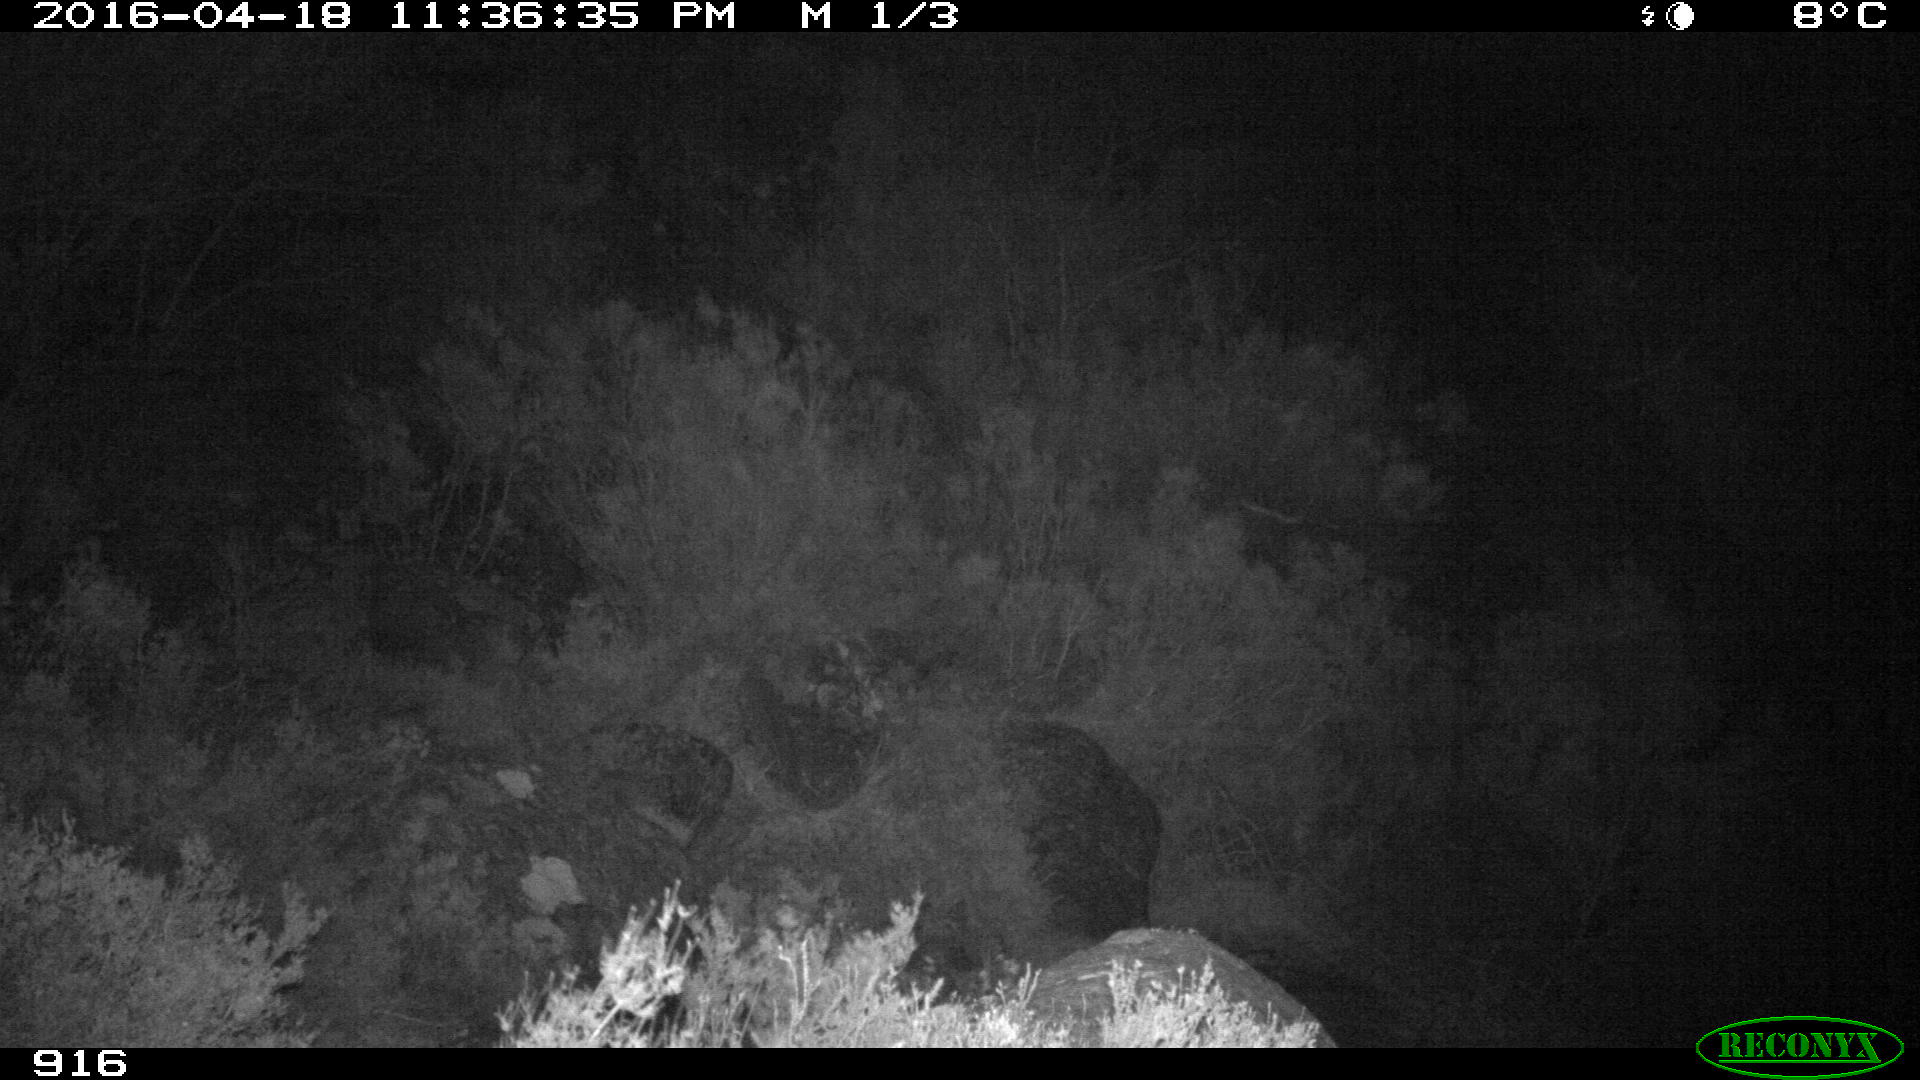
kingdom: Animalia
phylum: Chordata
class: Mammalia
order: Carnivora
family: Canidae
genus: Vulpes
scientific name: Vulpes vulpes
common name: Red fox
